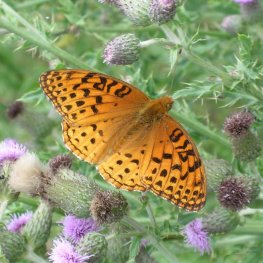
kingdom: Animalia
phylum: Arthropoda
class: Insecta
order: Lepidoptera
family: Nymphalidae
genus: Speyeria
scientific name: Speyeria aphrodite
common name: Aphrodite Fritillary
